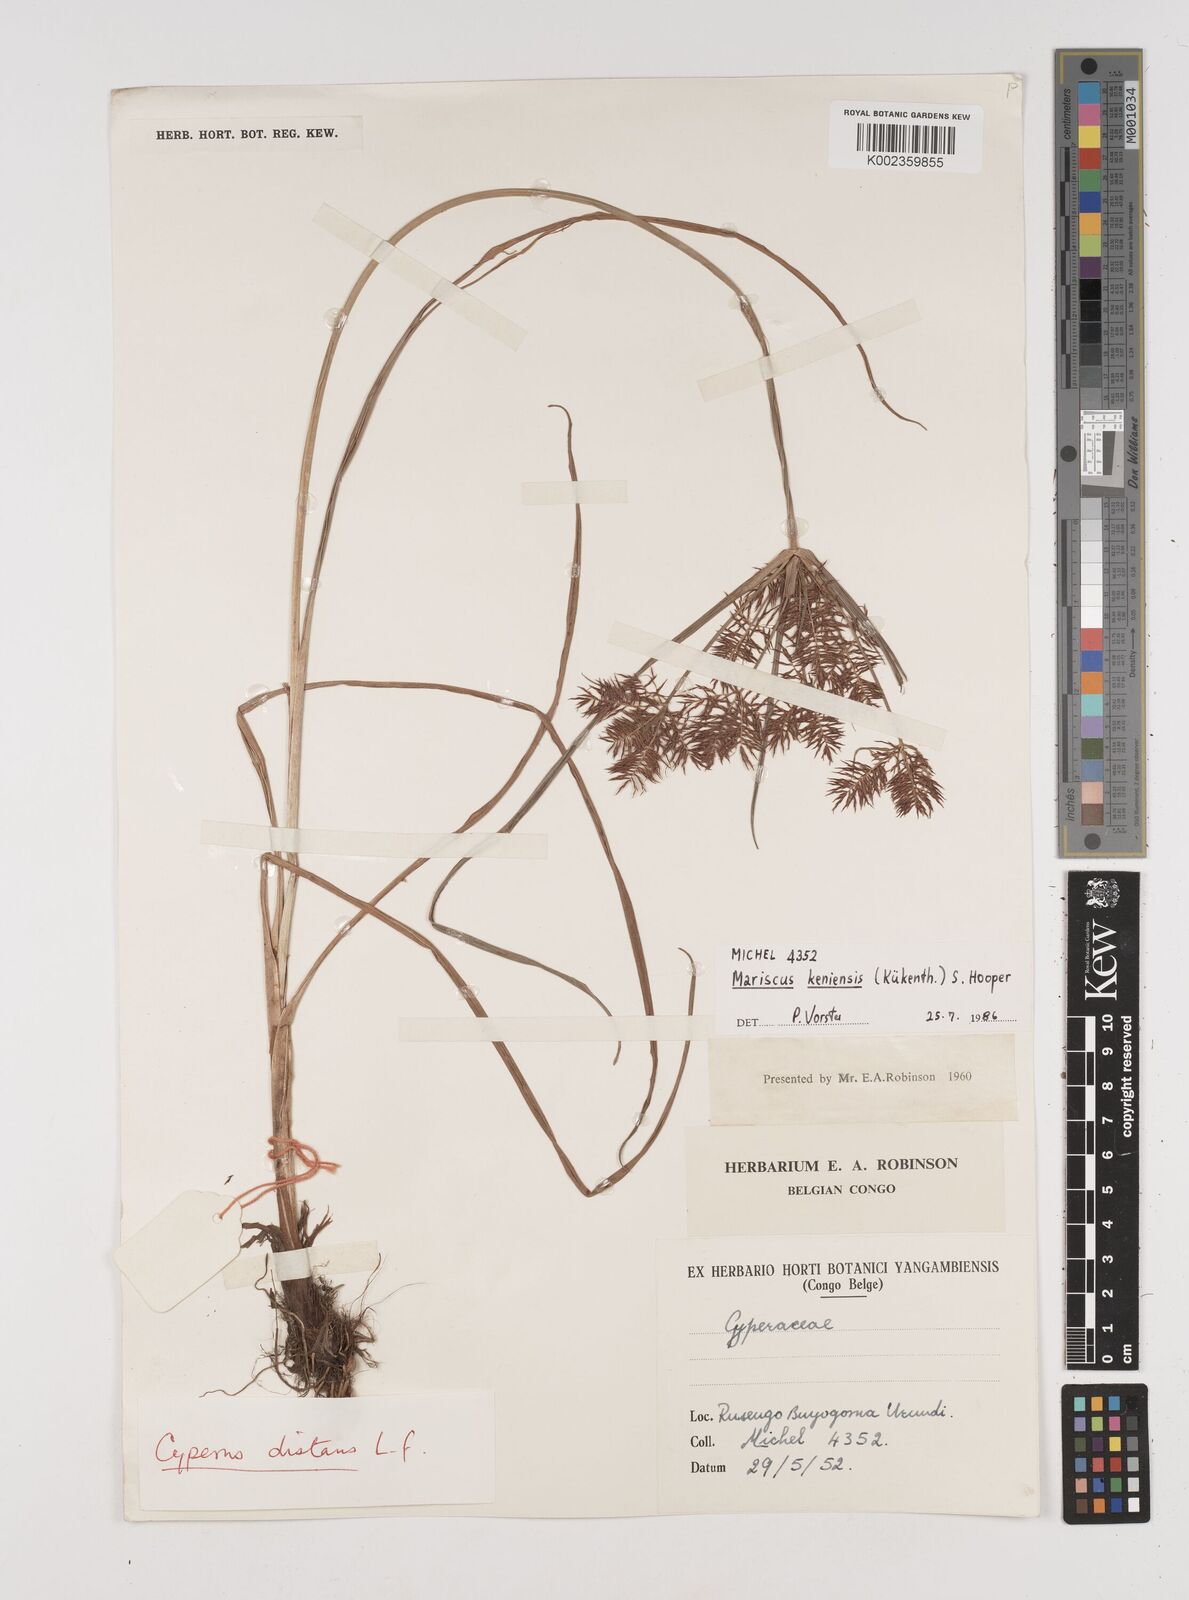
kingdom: Plantae
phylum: Tracheophyta
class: Liliopsida
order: Poales
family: Cyperaceae
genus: Cyperus
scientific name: Cyperus distans
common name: Slender cyperus
